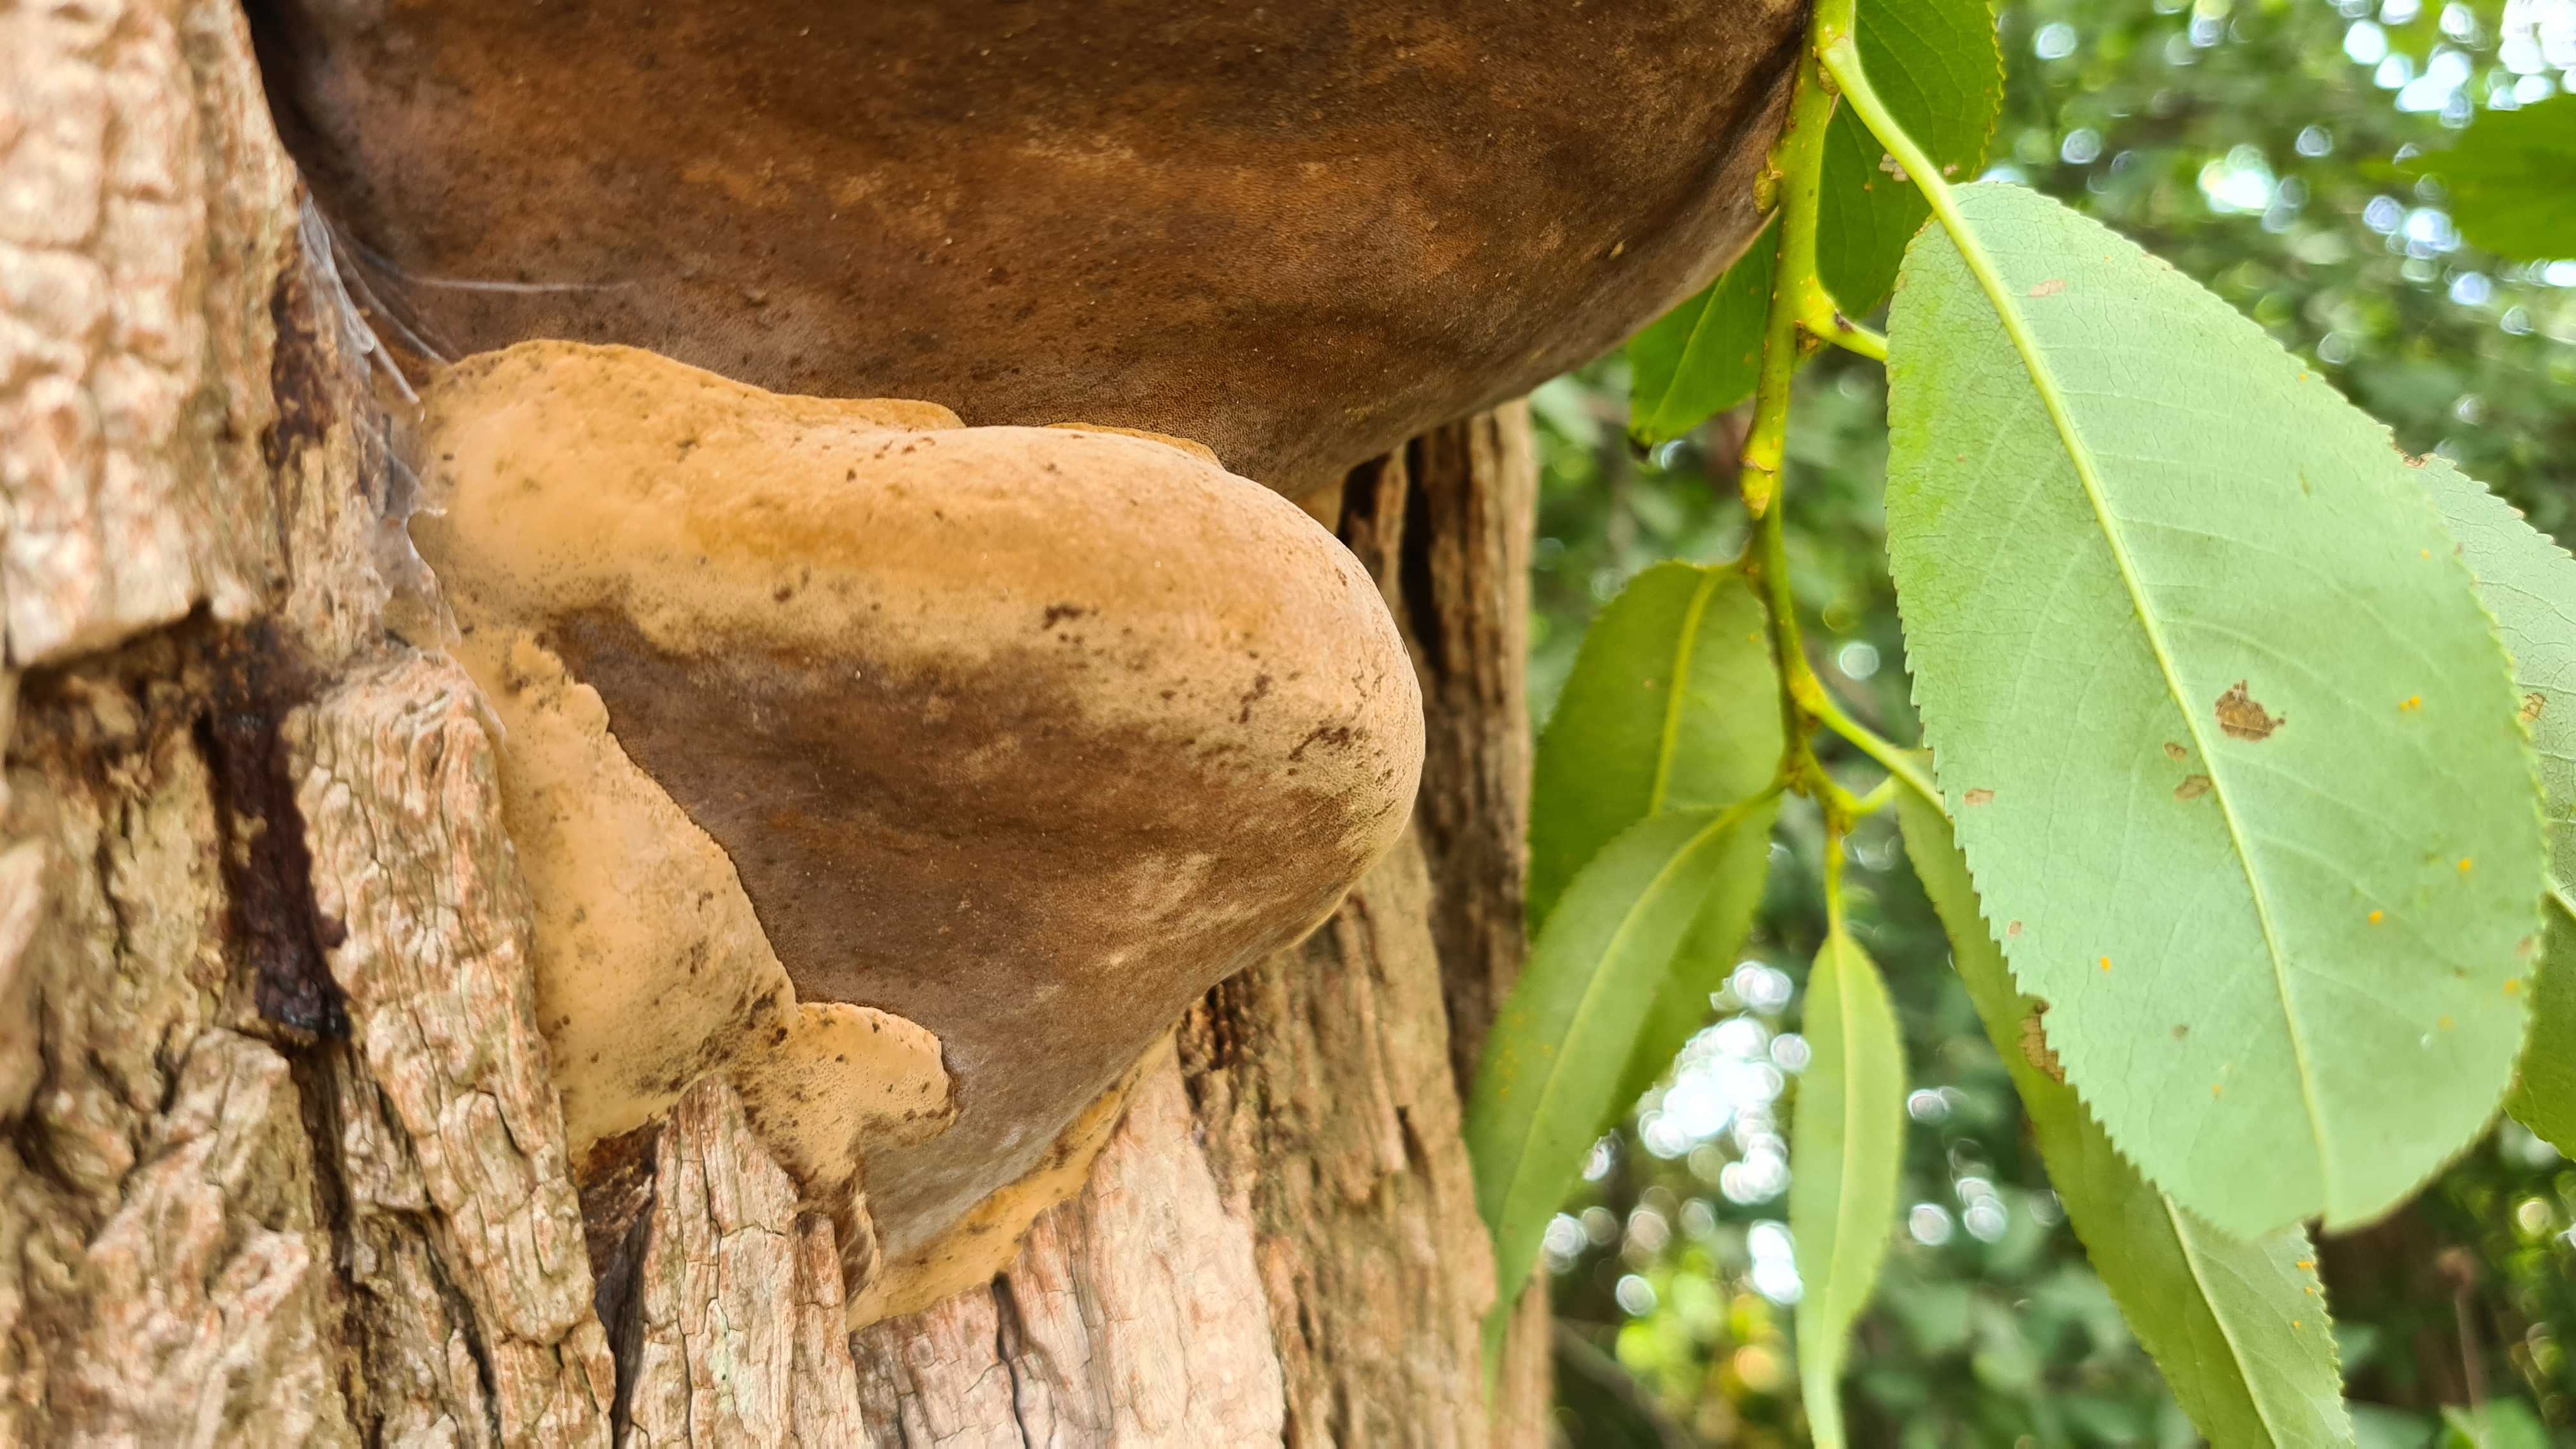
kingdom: Fungi
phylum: Basidiomycota
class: Agaricomycetes
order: Hymenochaetales
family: Hymenochaetaceae
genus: Phellinus
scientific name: Phellinus igniarius
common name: almindelig ildporesvamp
